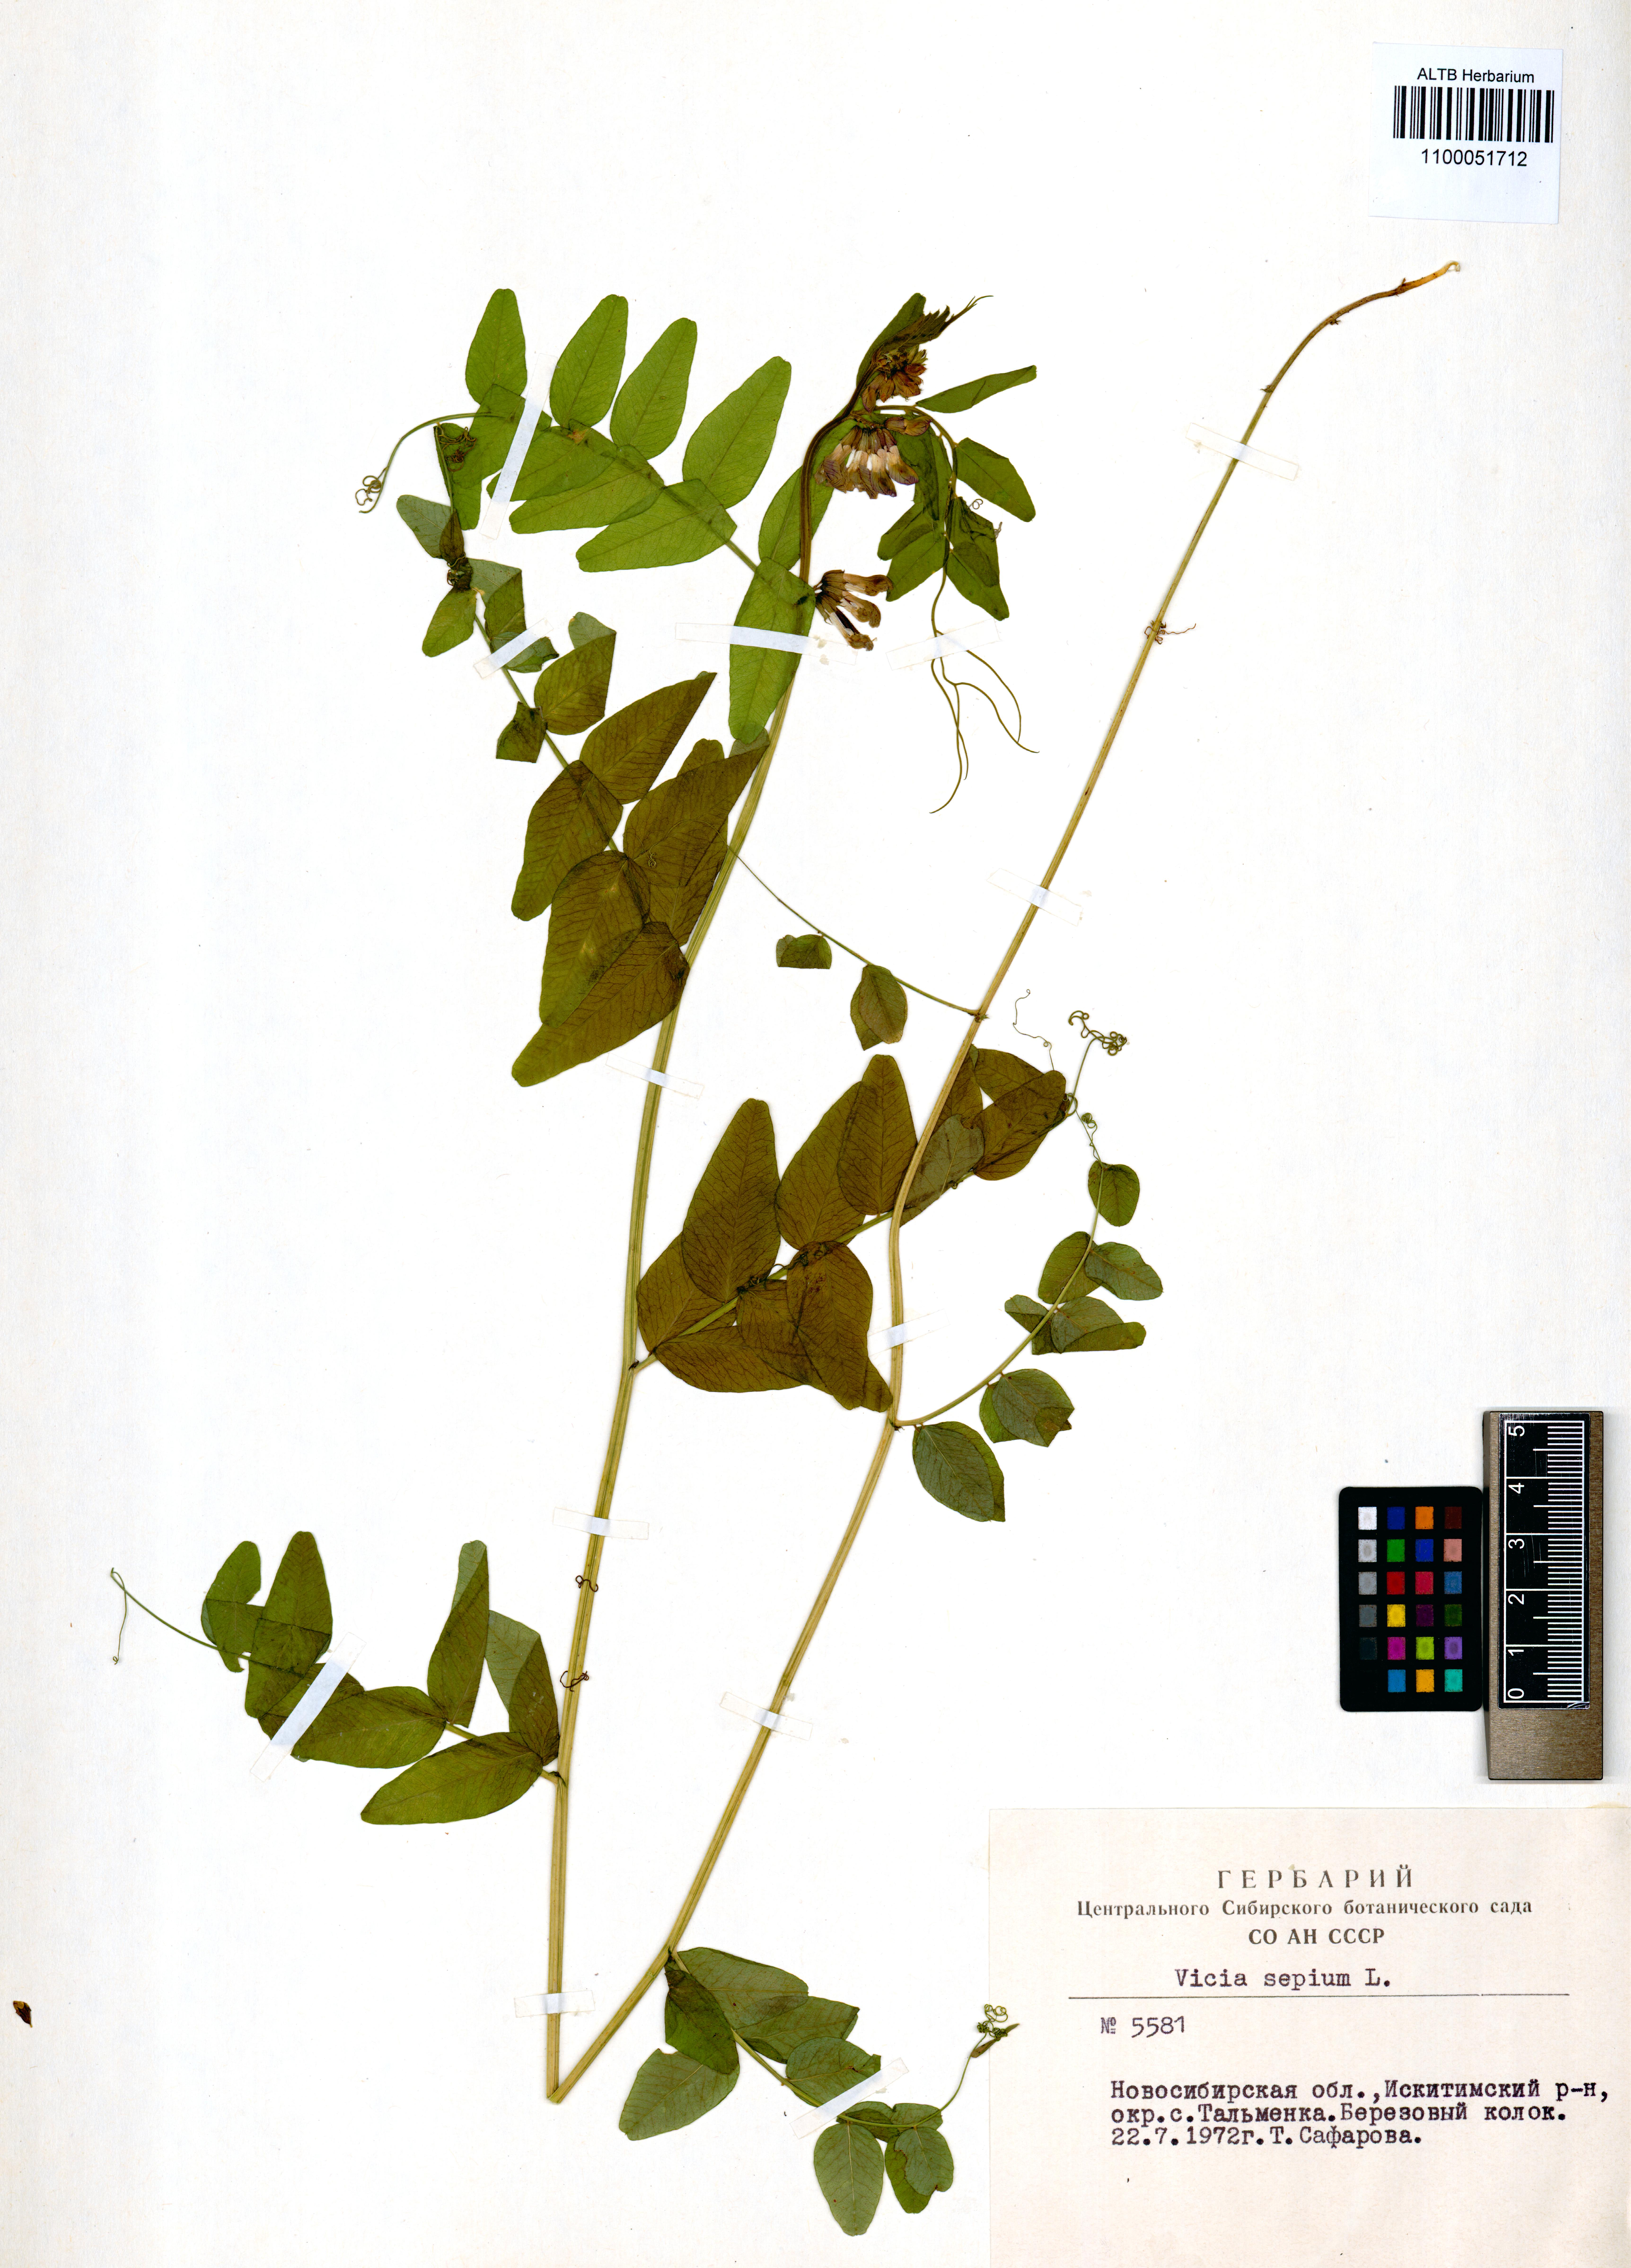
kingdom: Plantae
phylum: Tracheophyta
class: Magnoliopsida
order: Fabales
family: Fabaceae
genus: Vicia
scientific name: Vicia sepium
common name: Bush vetch
